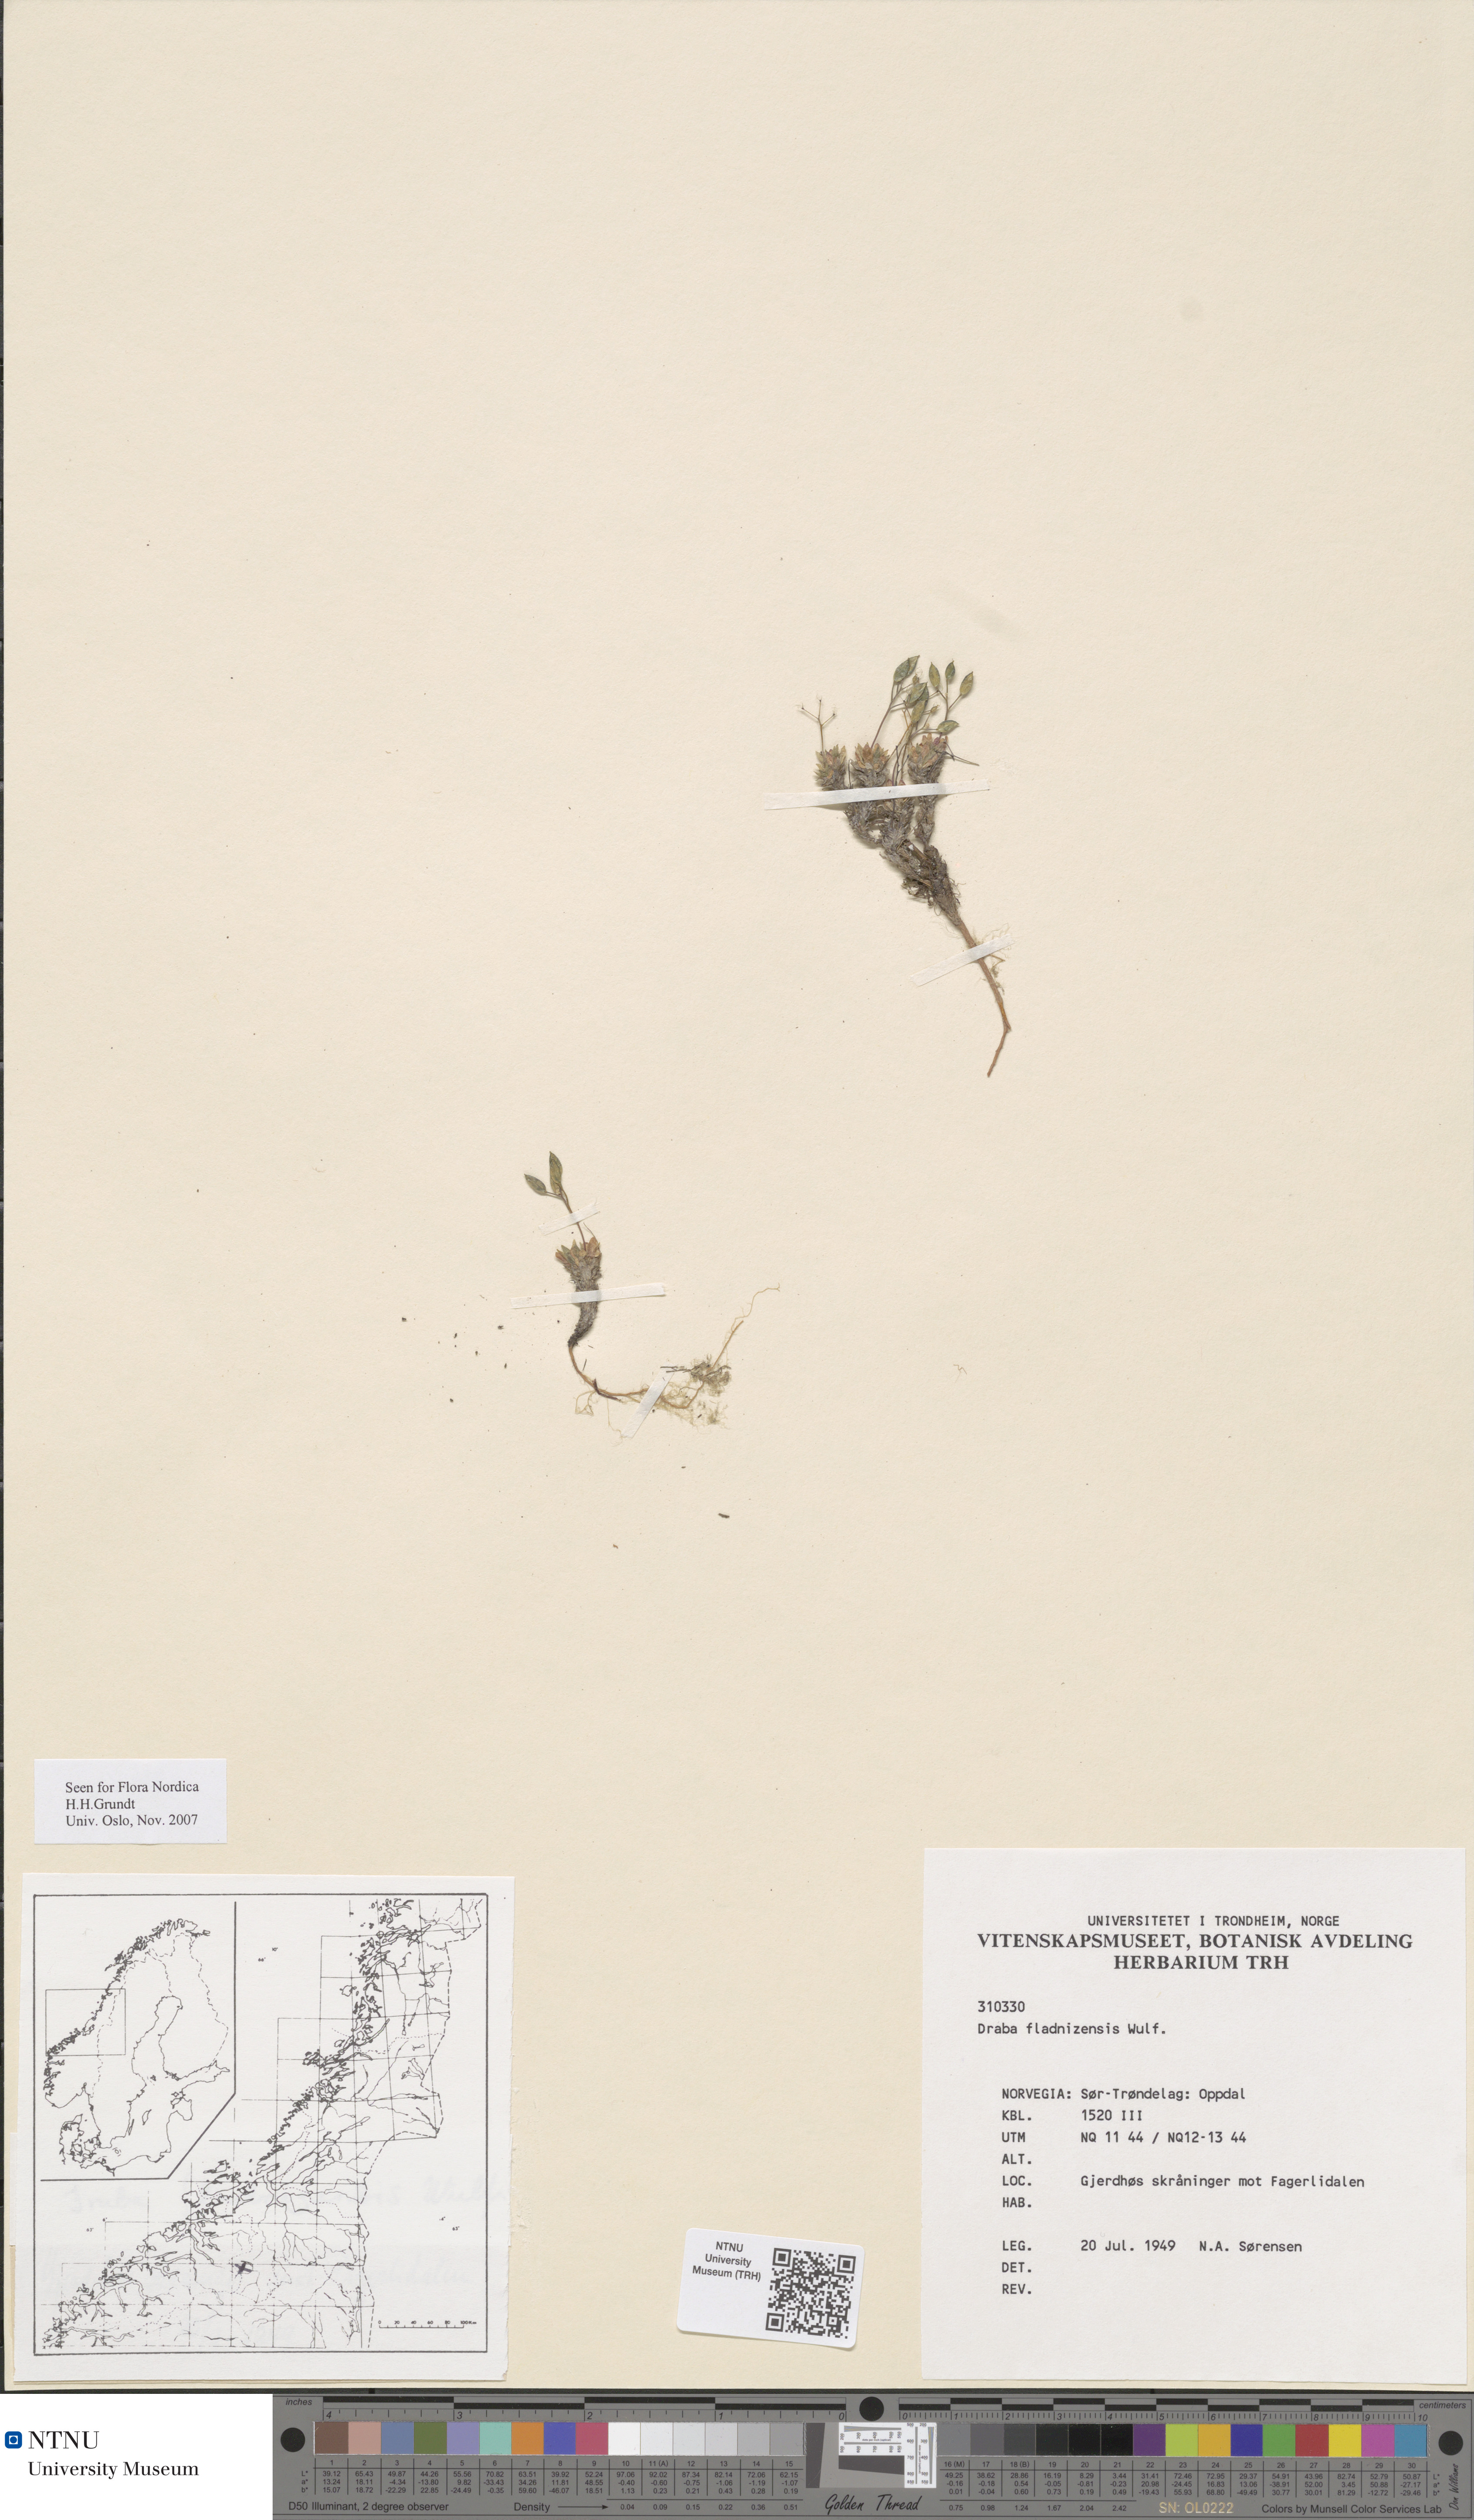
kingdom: Plantae
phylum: Tracheophyta
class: Magnoliopsida
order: Brassicales
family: Brassicaceae
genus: Draba
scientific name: Draba fladnizensis
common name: Austrian draba
